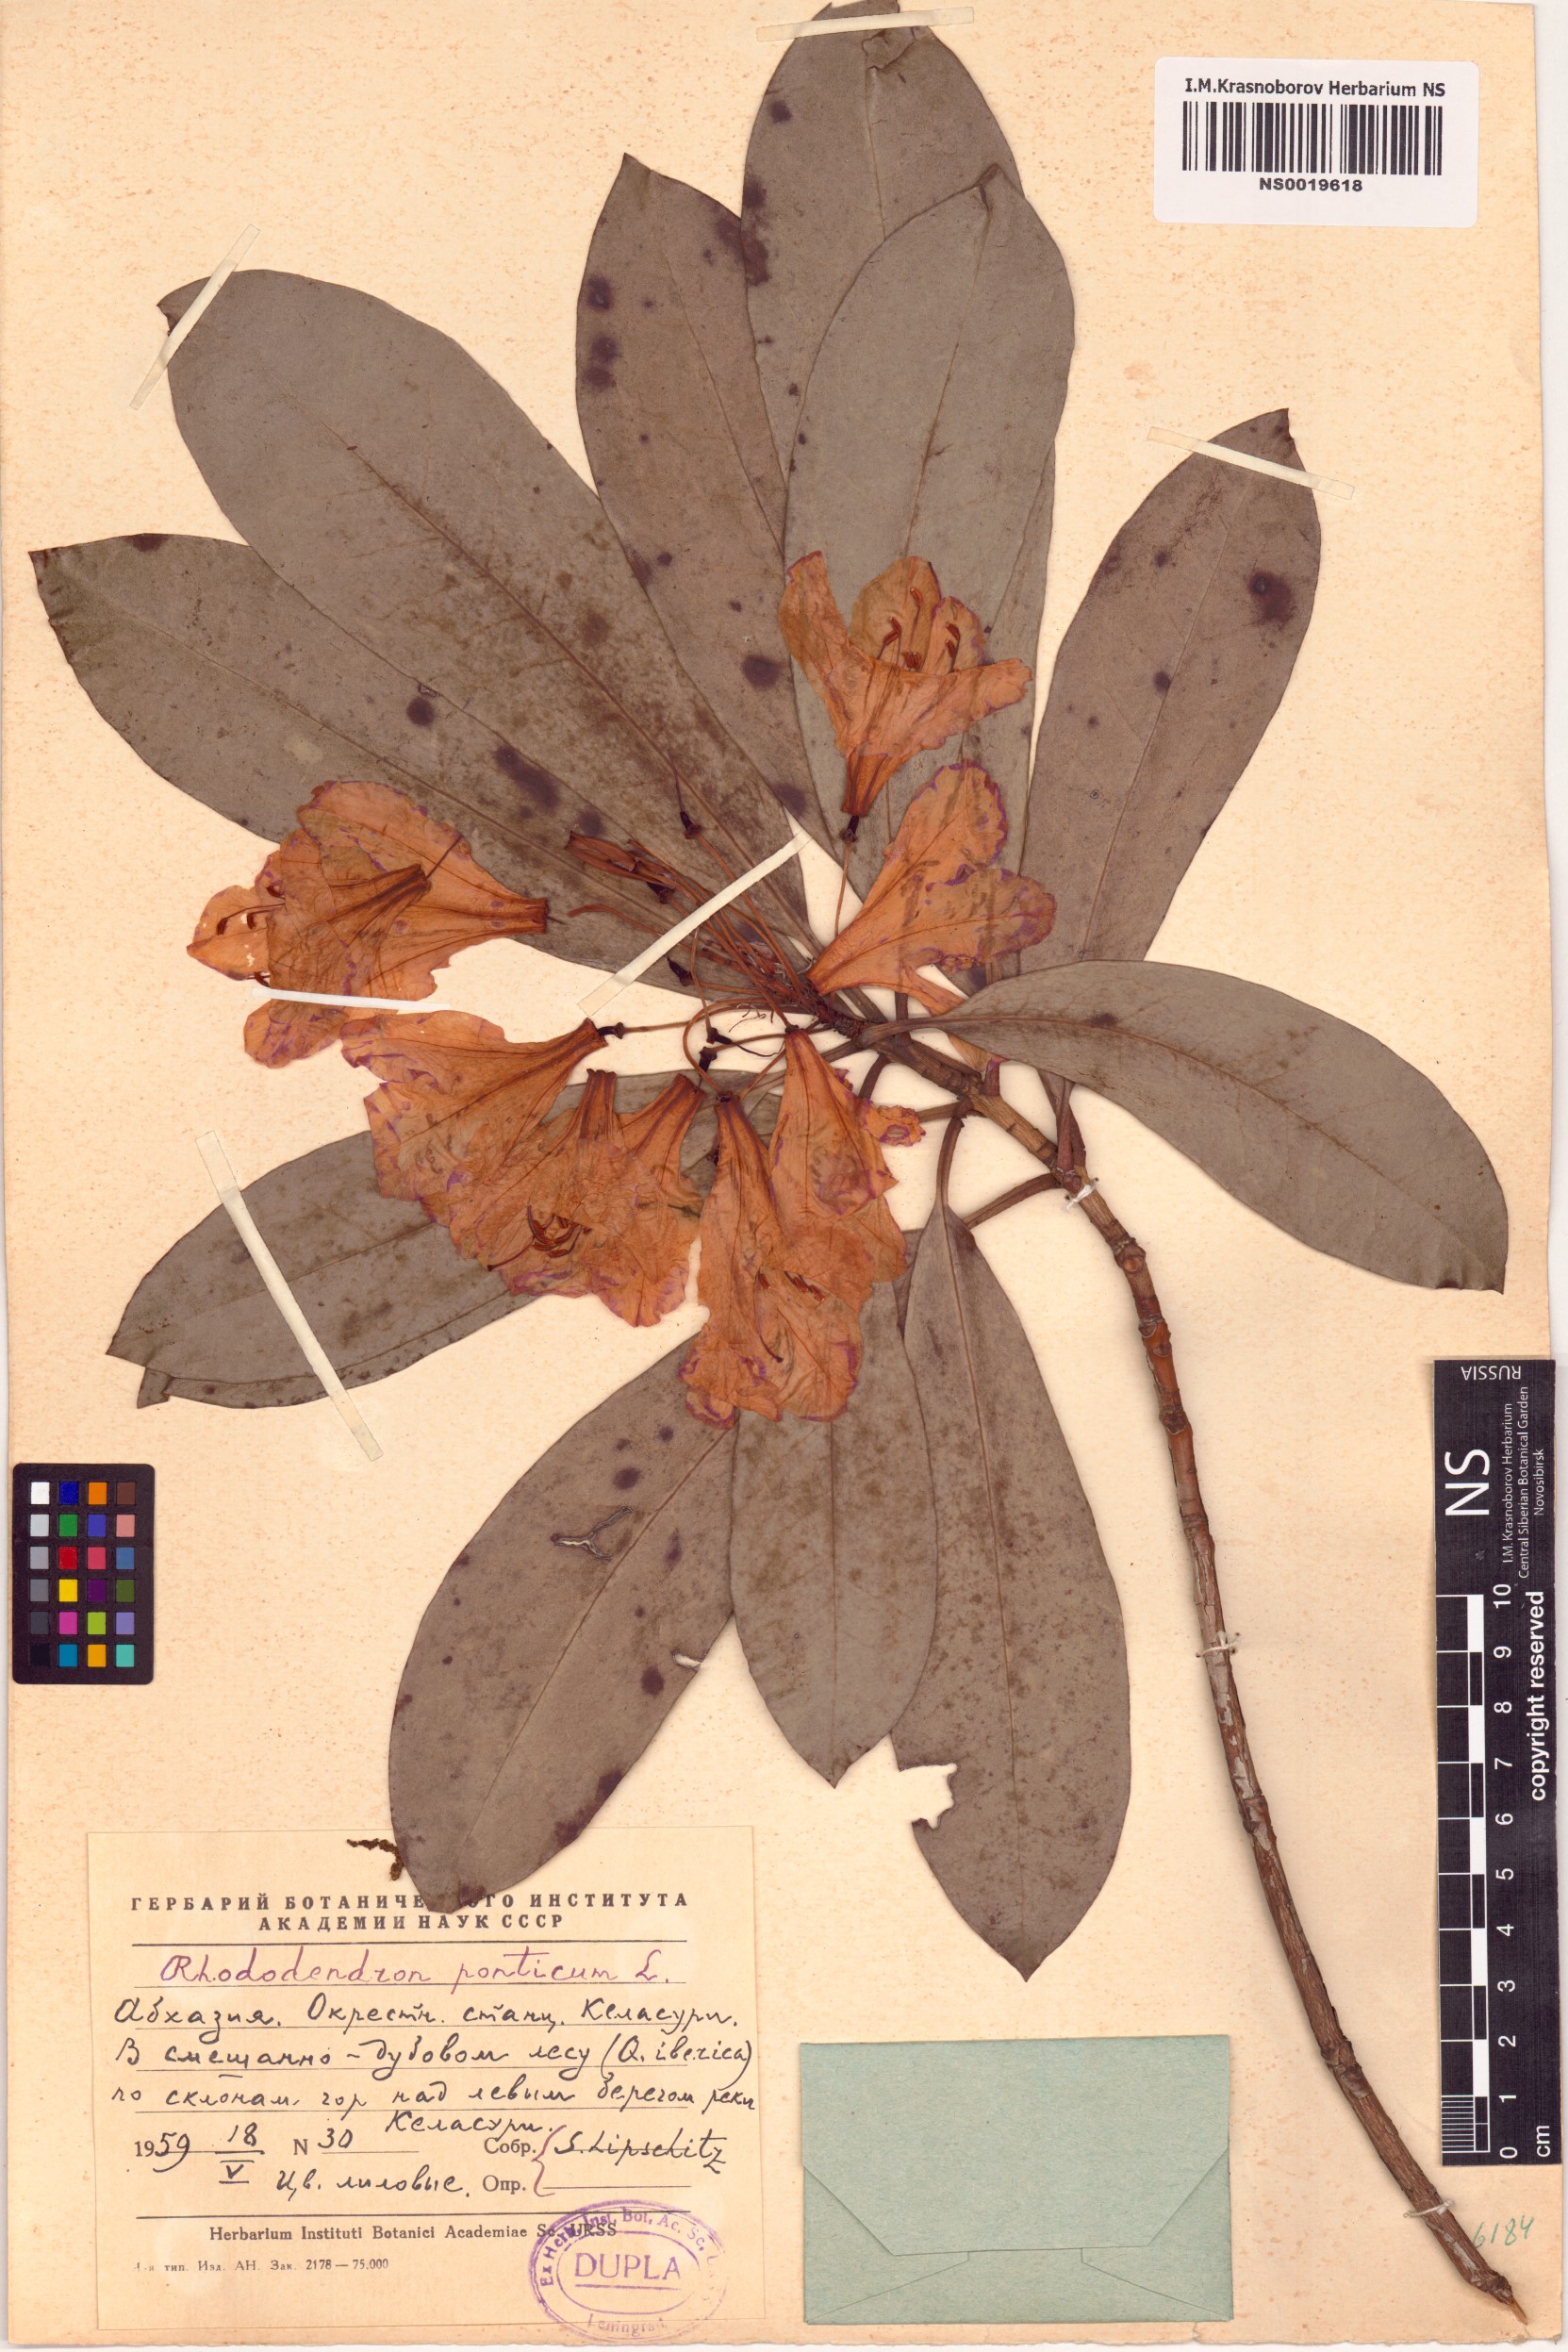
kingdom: Plantae
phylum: Tracheophyta
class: Magnoliopsida
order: Ericales
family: Ericaceae
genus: Rhododendron
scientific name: Rhododendron ponticum
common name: Rhododendron
